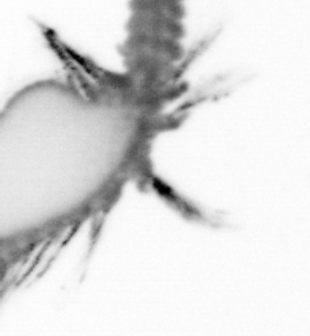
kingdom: Animalia
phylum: Annelida
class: Polychaeta
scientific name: Polychaeta
